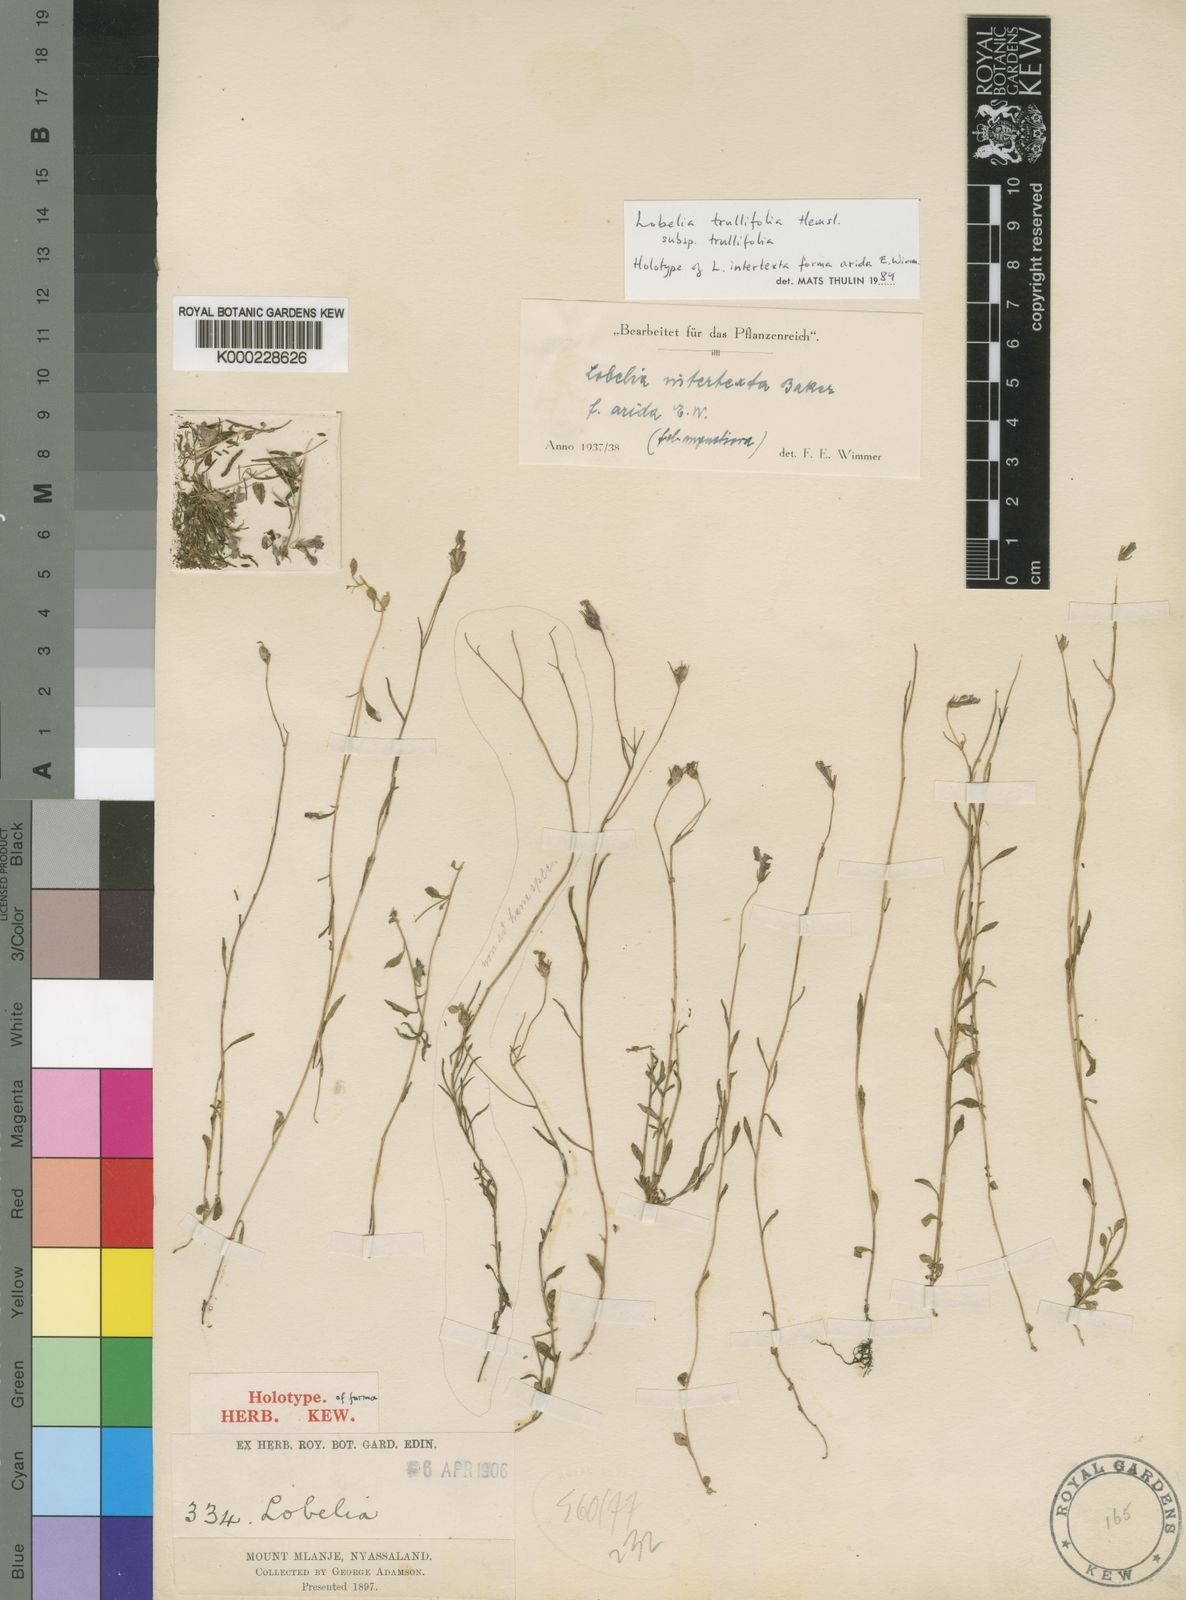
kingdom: Plantae
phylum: Tracheophyta
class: Magnoliopsida
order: Asterales
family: Campanulaceae
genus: Lobelia
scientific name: Lobelia trullifolia
